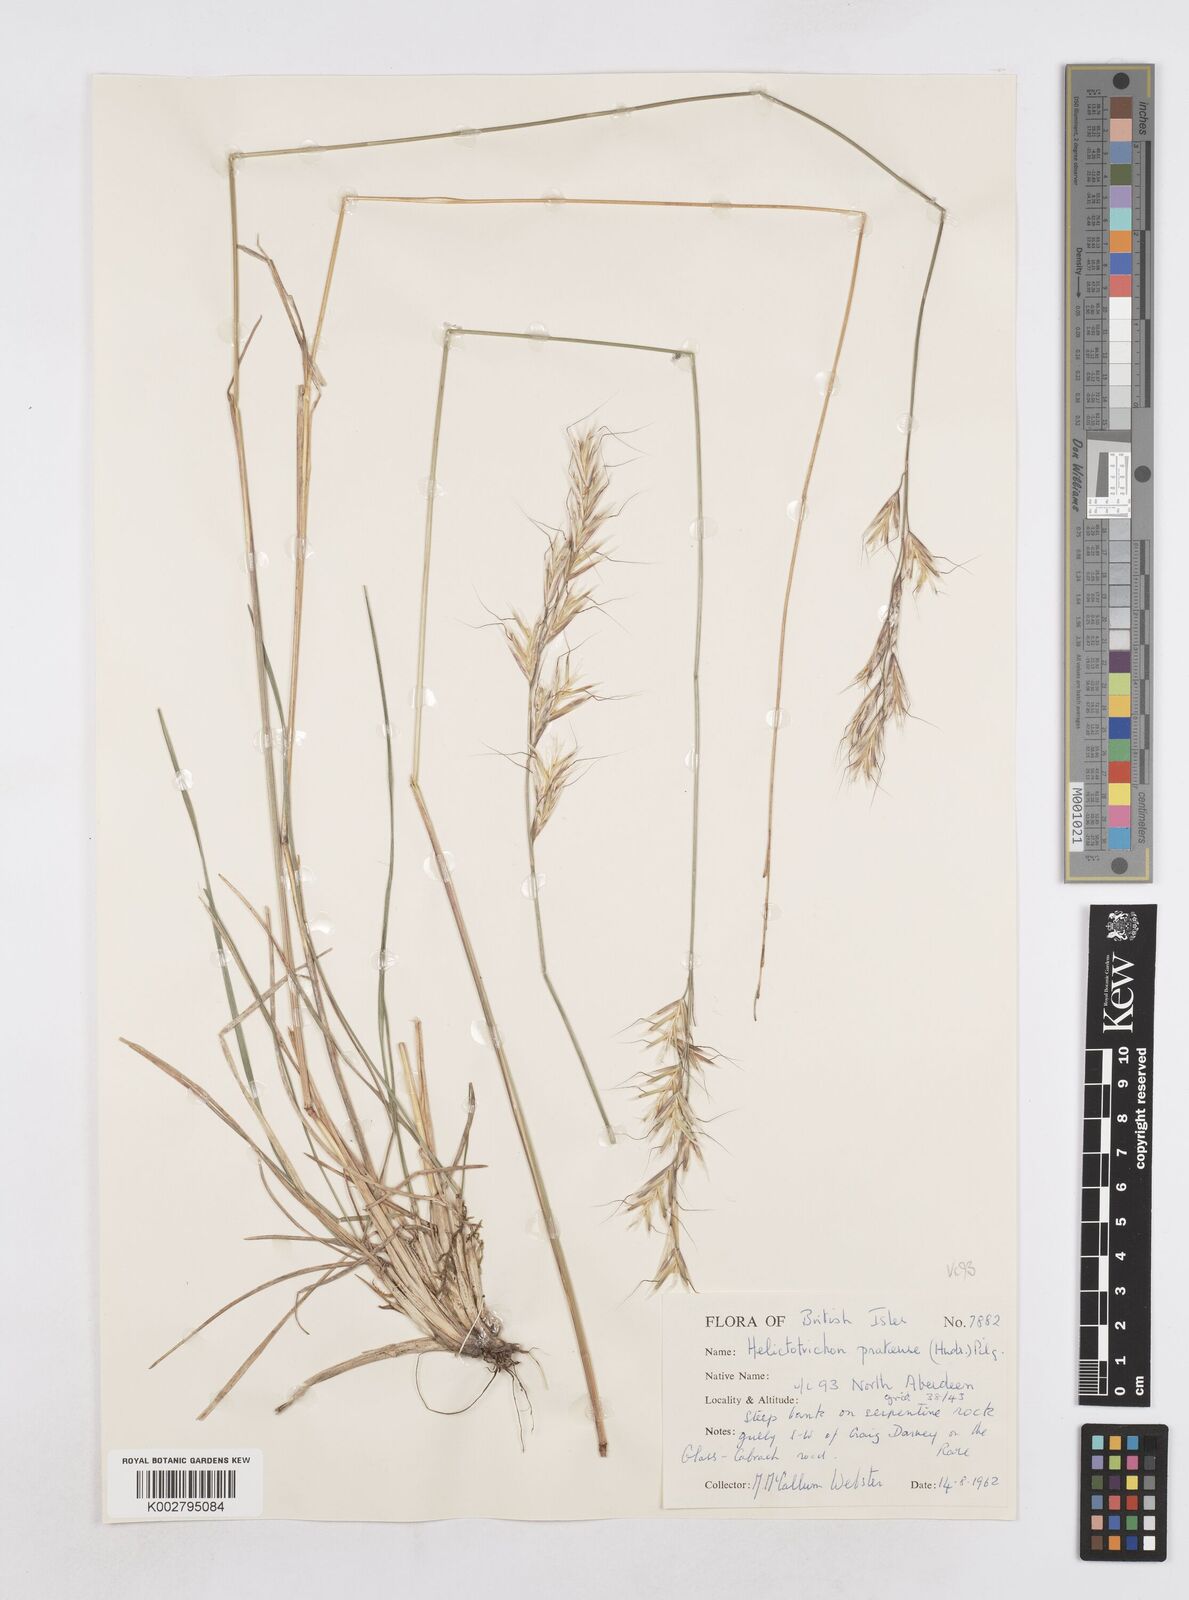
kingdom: Plantae
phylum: Tracheophyta
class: Liliopsida
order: Poales
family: Poaceae
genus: Helictochloa
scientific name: Helictochloa pratensis
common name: Meadow oat grass
